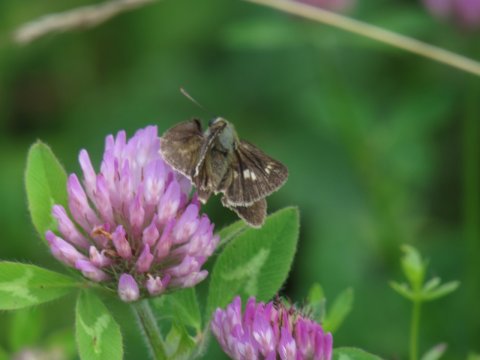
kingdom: Animalia
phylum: Arthropoda
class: Insecta
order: Lepidoptera
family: Hesperiidae
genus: Vernia
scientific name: Vernia verna
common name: Little Glassywing
